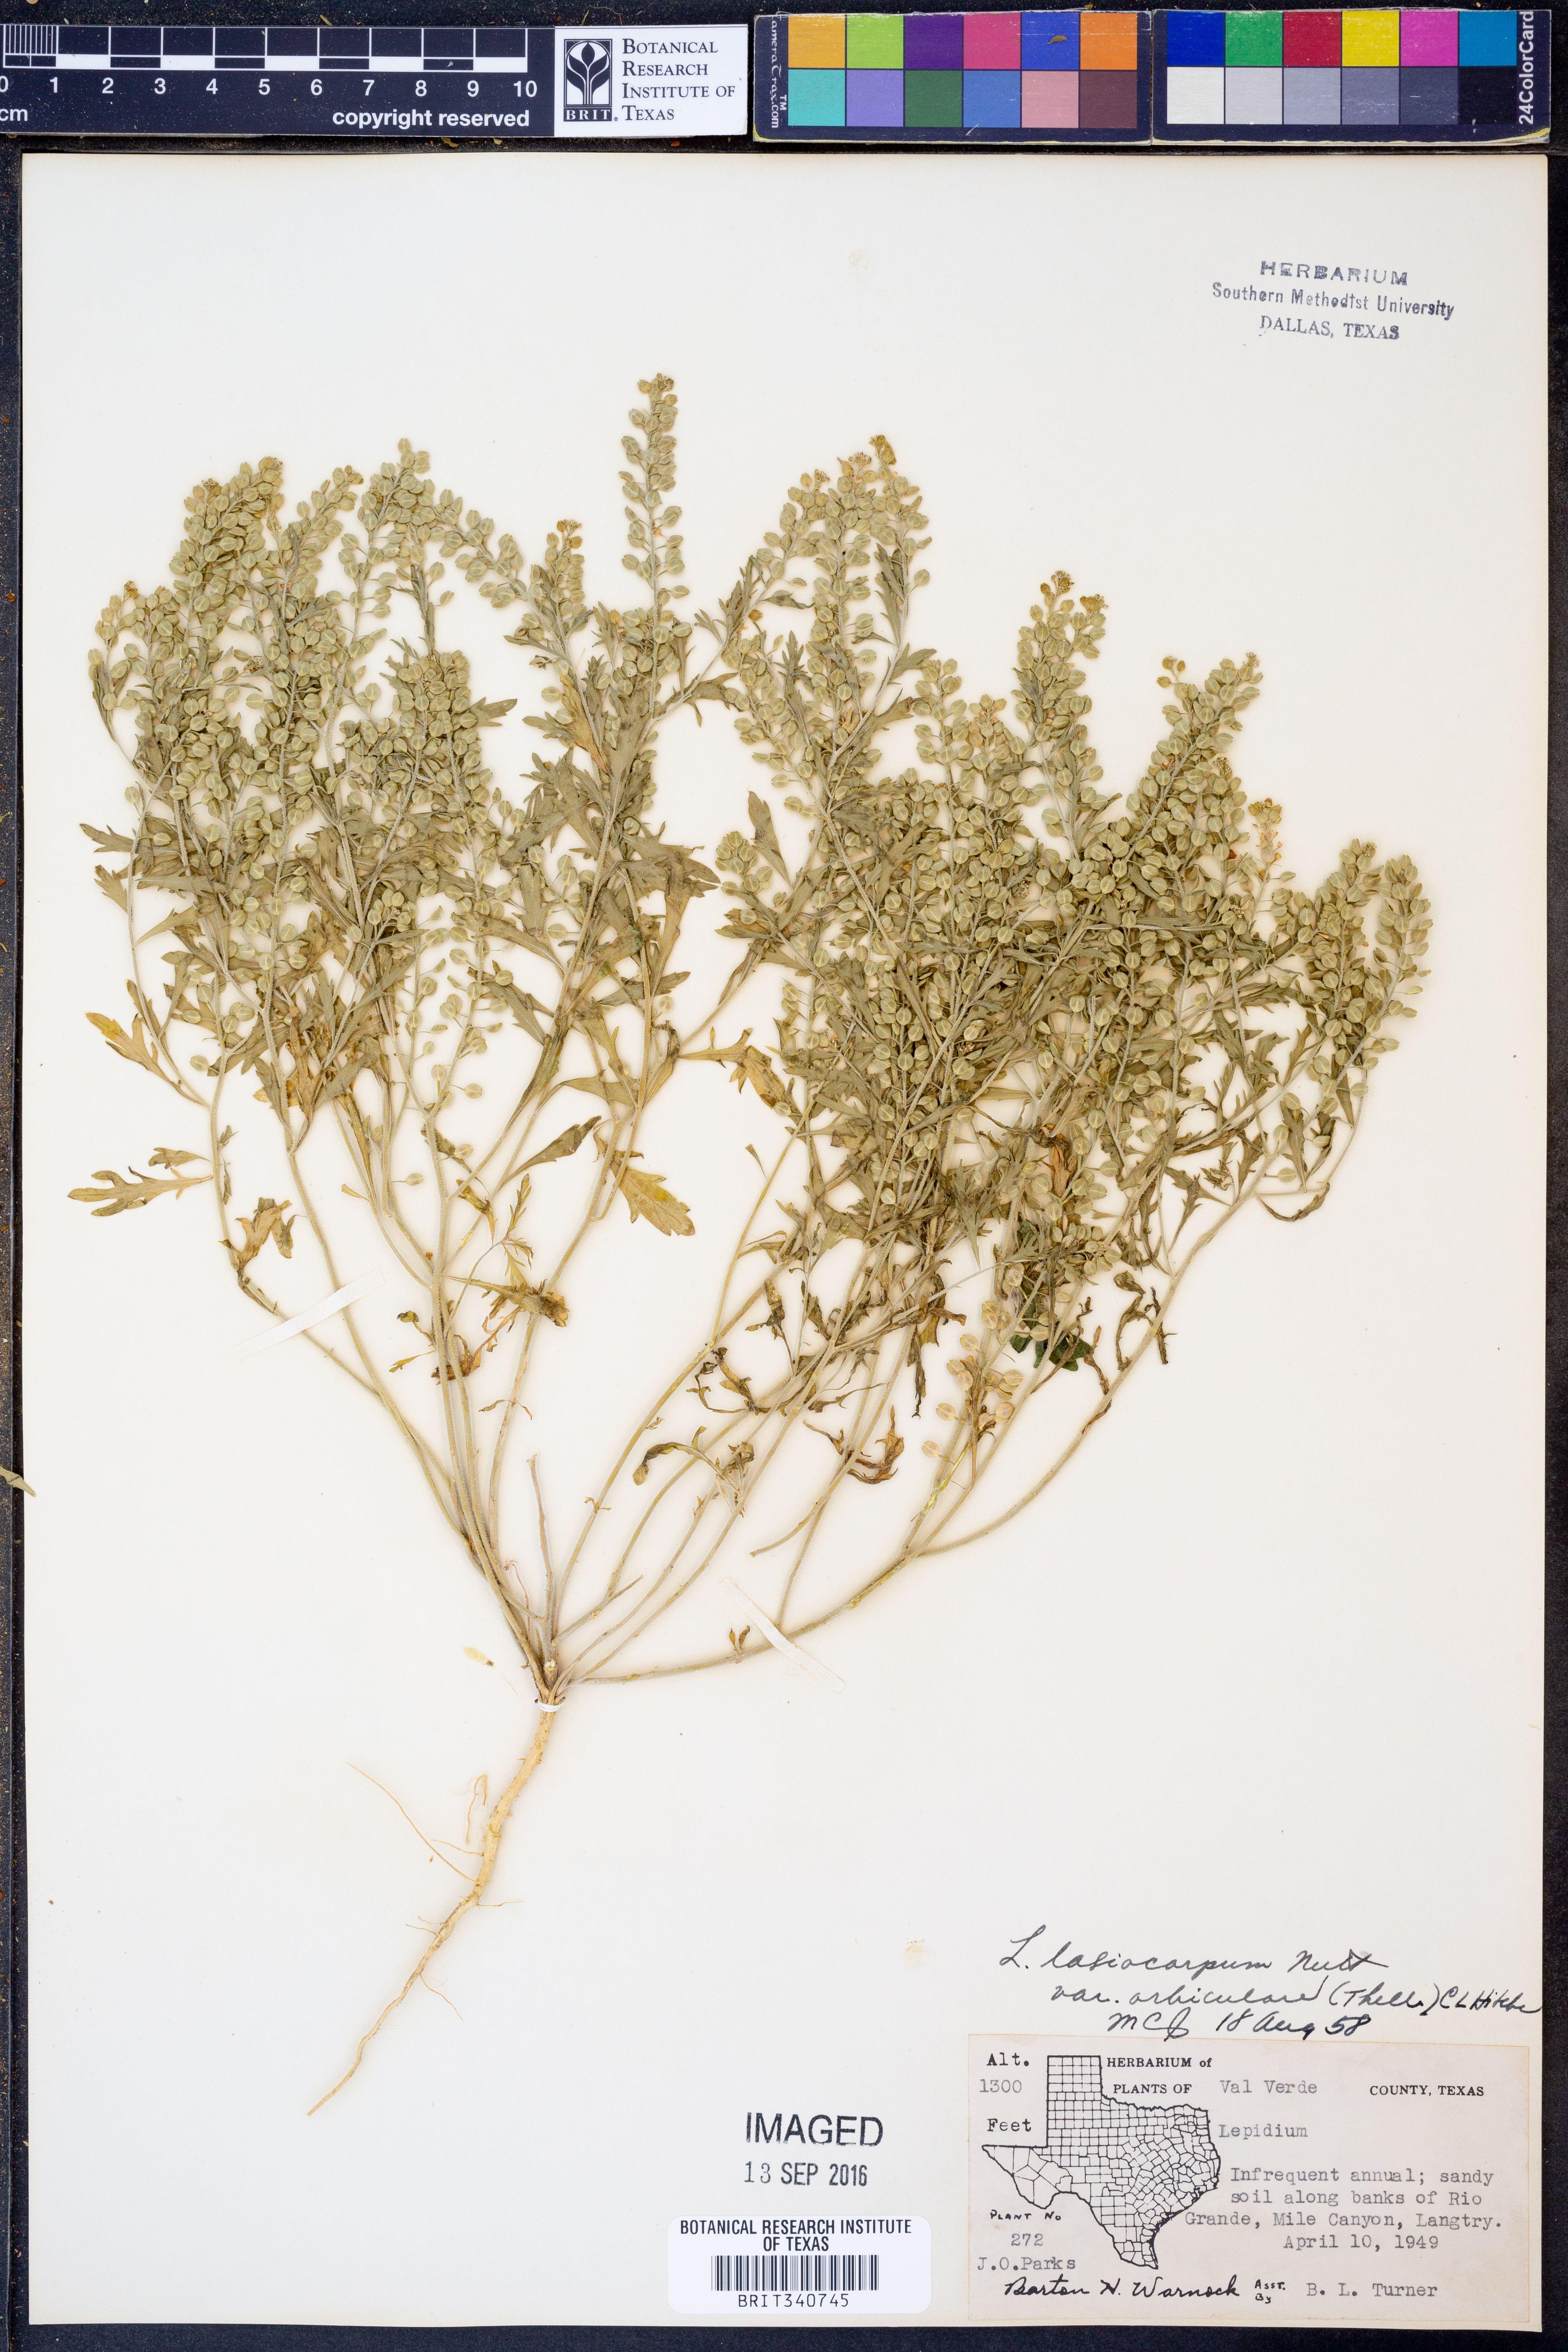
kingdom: Plantae
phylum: Tracheophyta
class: Magnoliopsida
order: Brassicales
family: Brassicaceae
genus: Lepidium
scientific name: Lepidium austrinum
